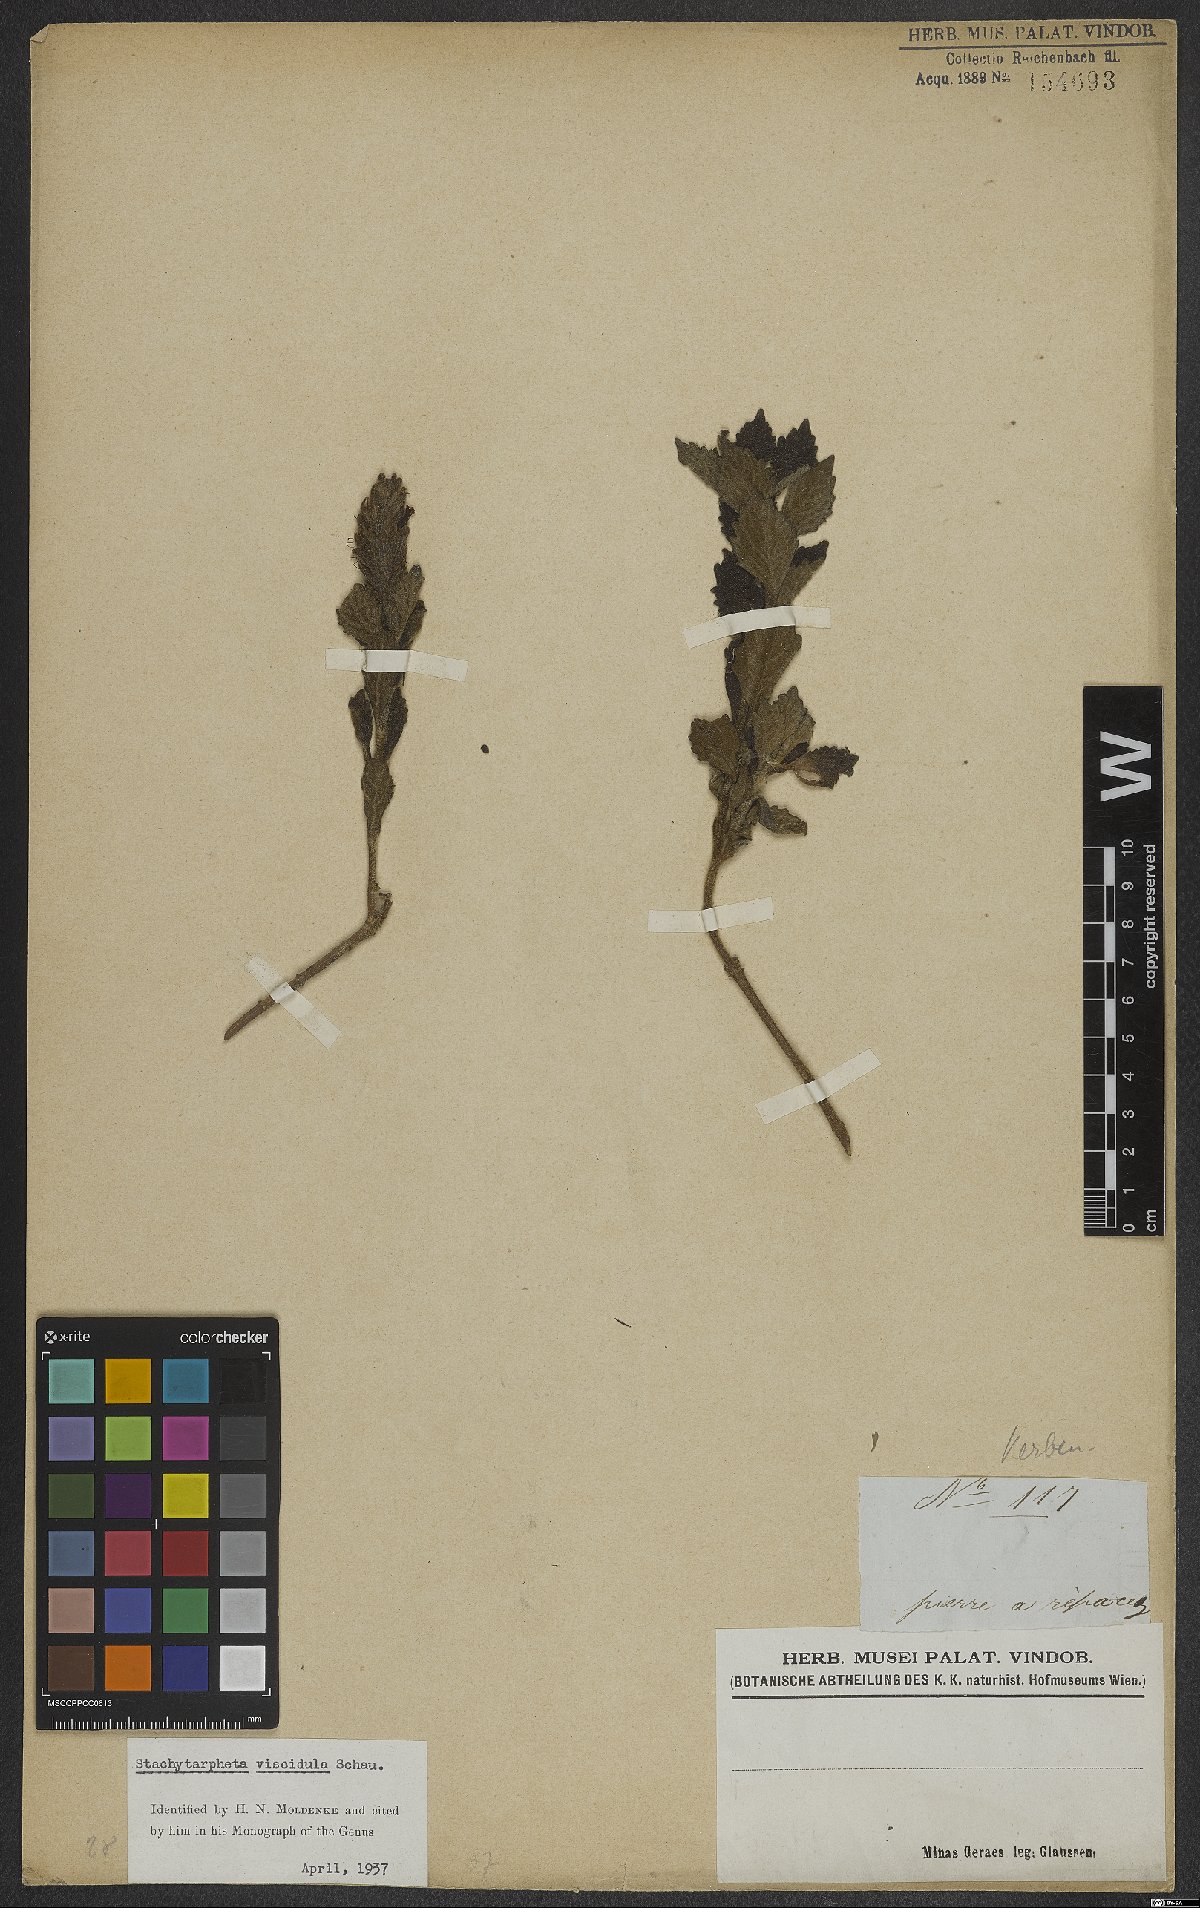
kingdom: Plantae
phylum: Tracheophyta
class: Magnoliopsida
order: Lamiales
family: Verbenaceae
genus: Stachytarpheta
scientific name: Stachytarpheta viscidula
